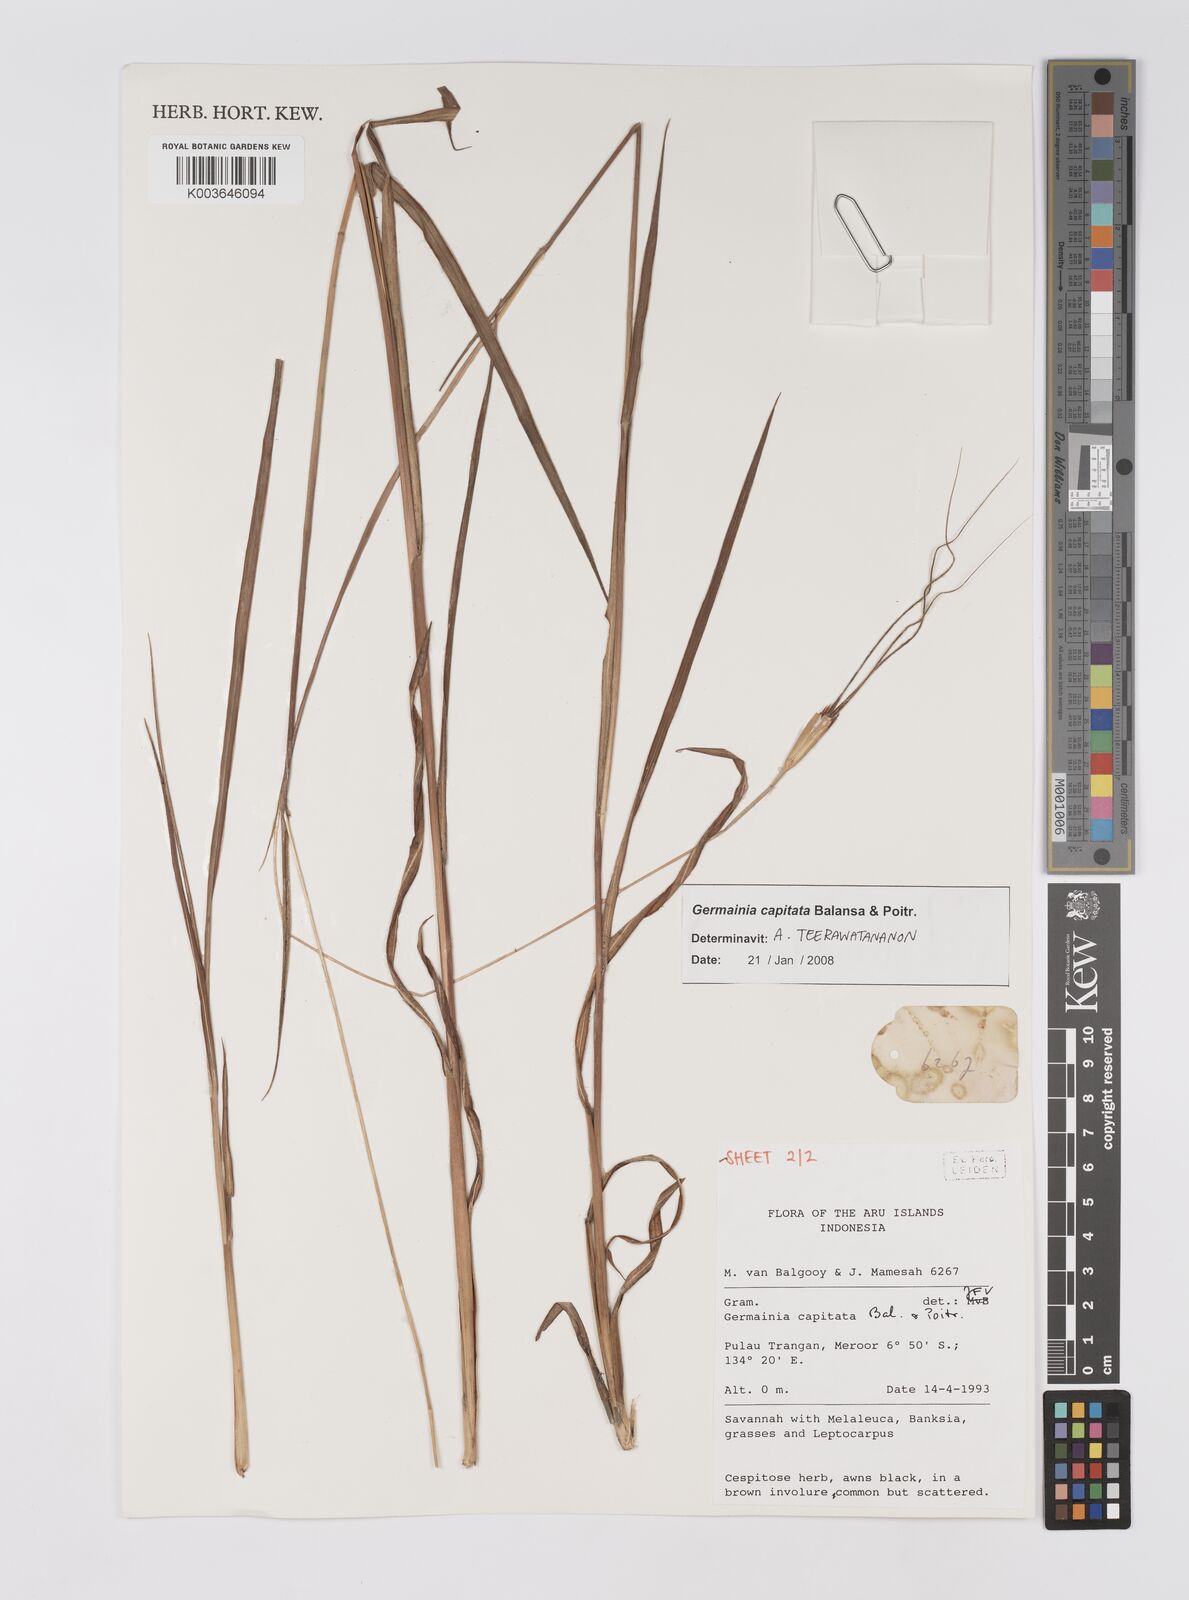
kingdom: Plantae
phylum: Tracheophyta
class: Liliopsida
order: Poales
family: Poaceae
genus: Germainia
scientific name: Germainia capitata
